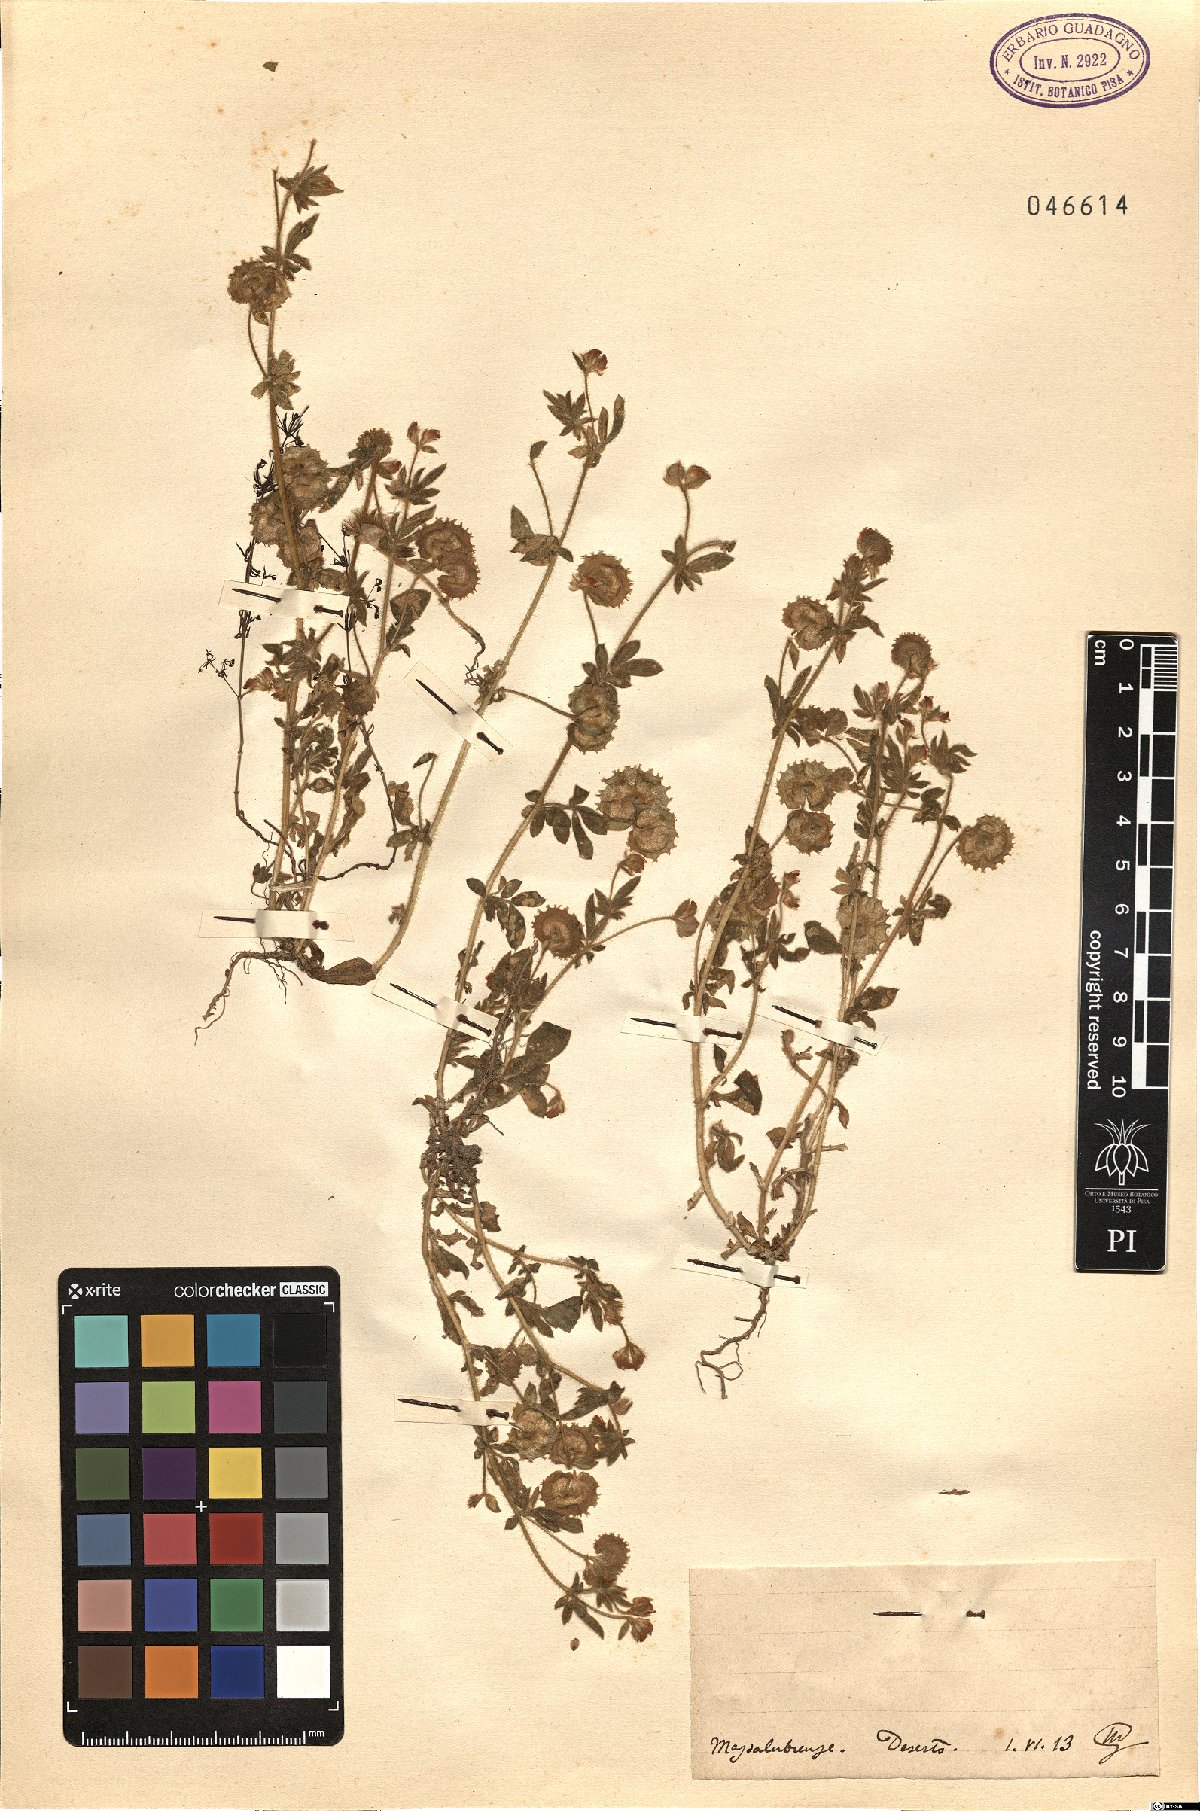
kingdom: Plantae
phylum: Tracheophyta
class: Magnoliopsida
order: Fabales
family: Fabaceae
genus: Anthyllis
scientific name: Anthyllis Hymenocarpos spec
